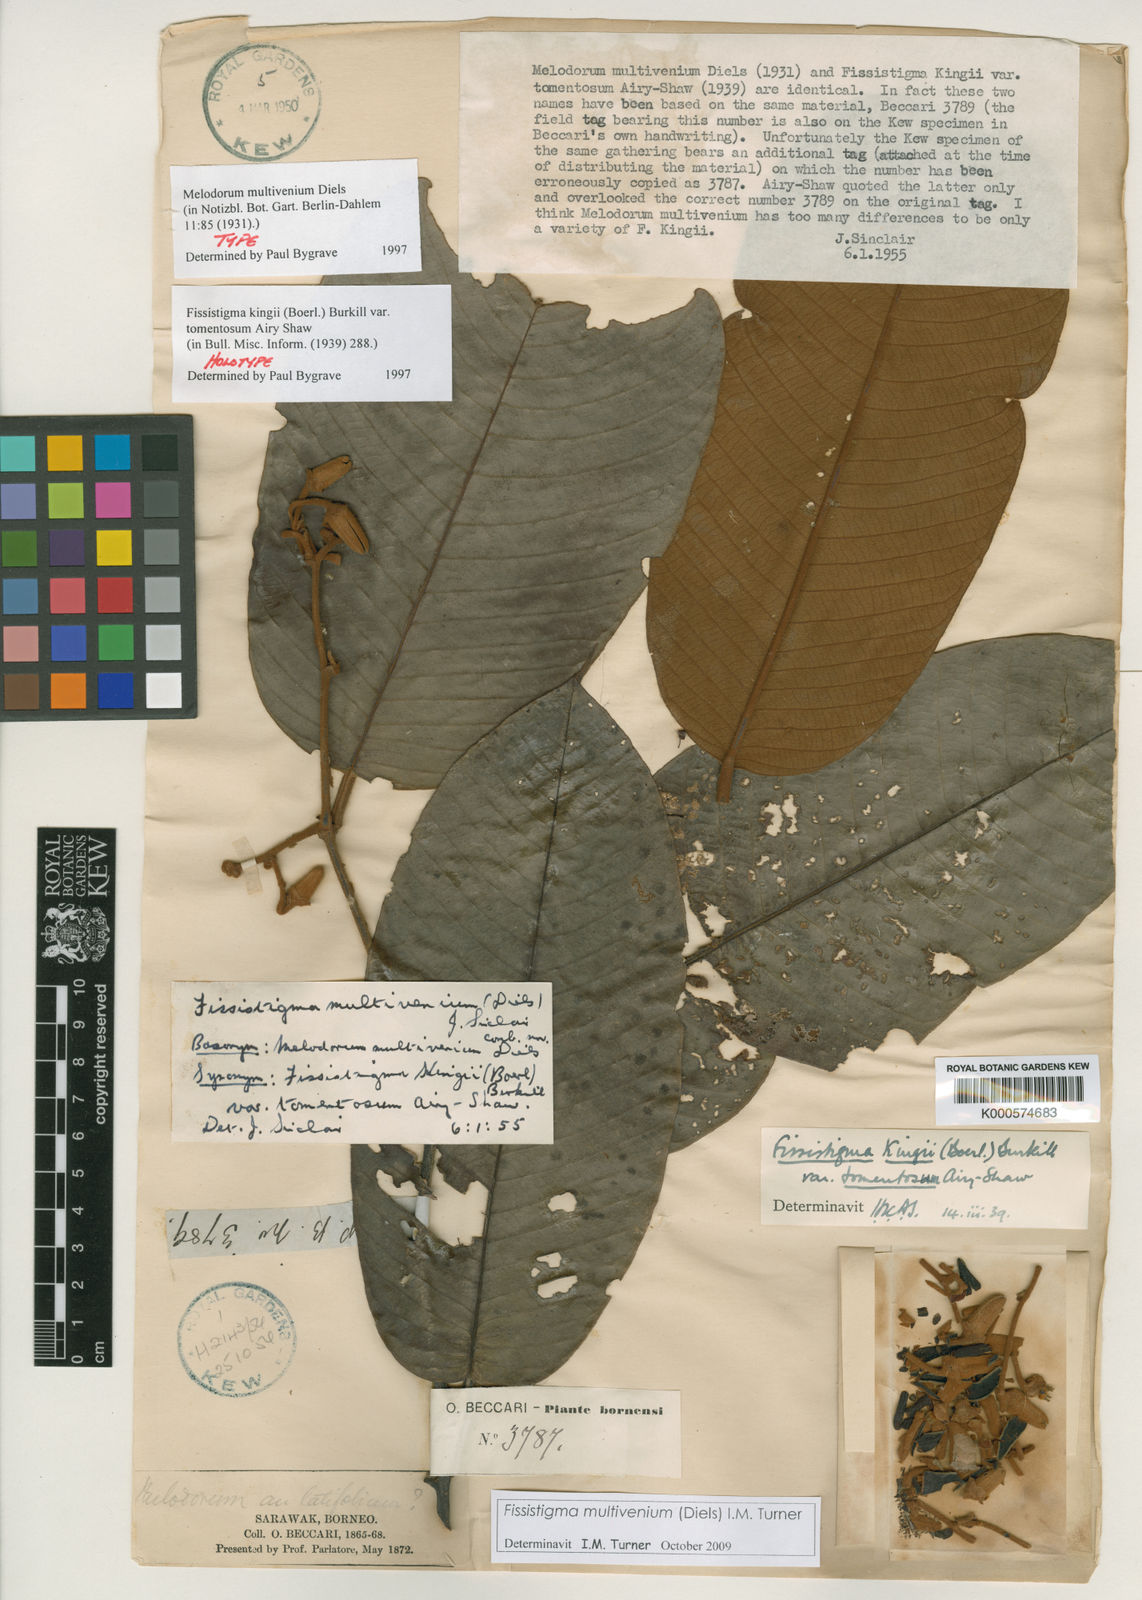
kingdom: Plantae
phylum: Tracheophyta
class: Magnoliopsida
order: Magnoliales
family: Annonaceae
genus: Fissistigma
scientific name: Fissistigma multivenium
